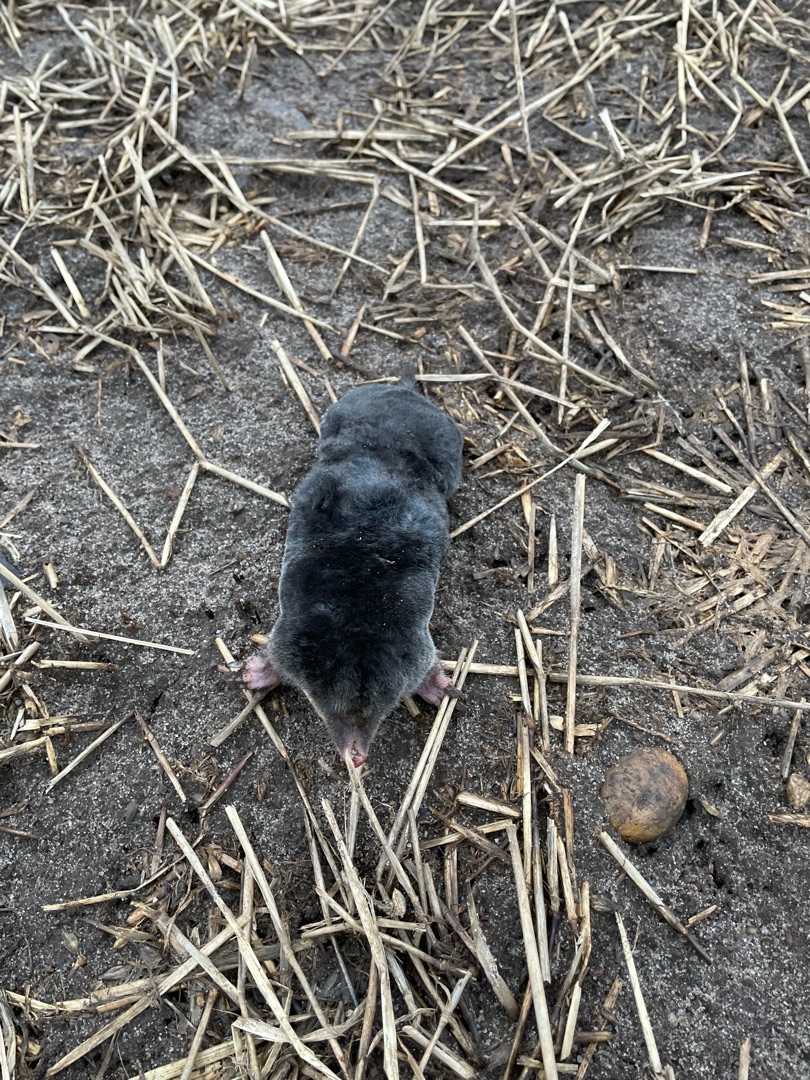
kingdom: Animalia
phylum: Chordata
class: Mammalia
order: Soricomorpha
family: Talpidae
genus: Talpa
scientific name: Talpa europaea
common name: Muldvarp
